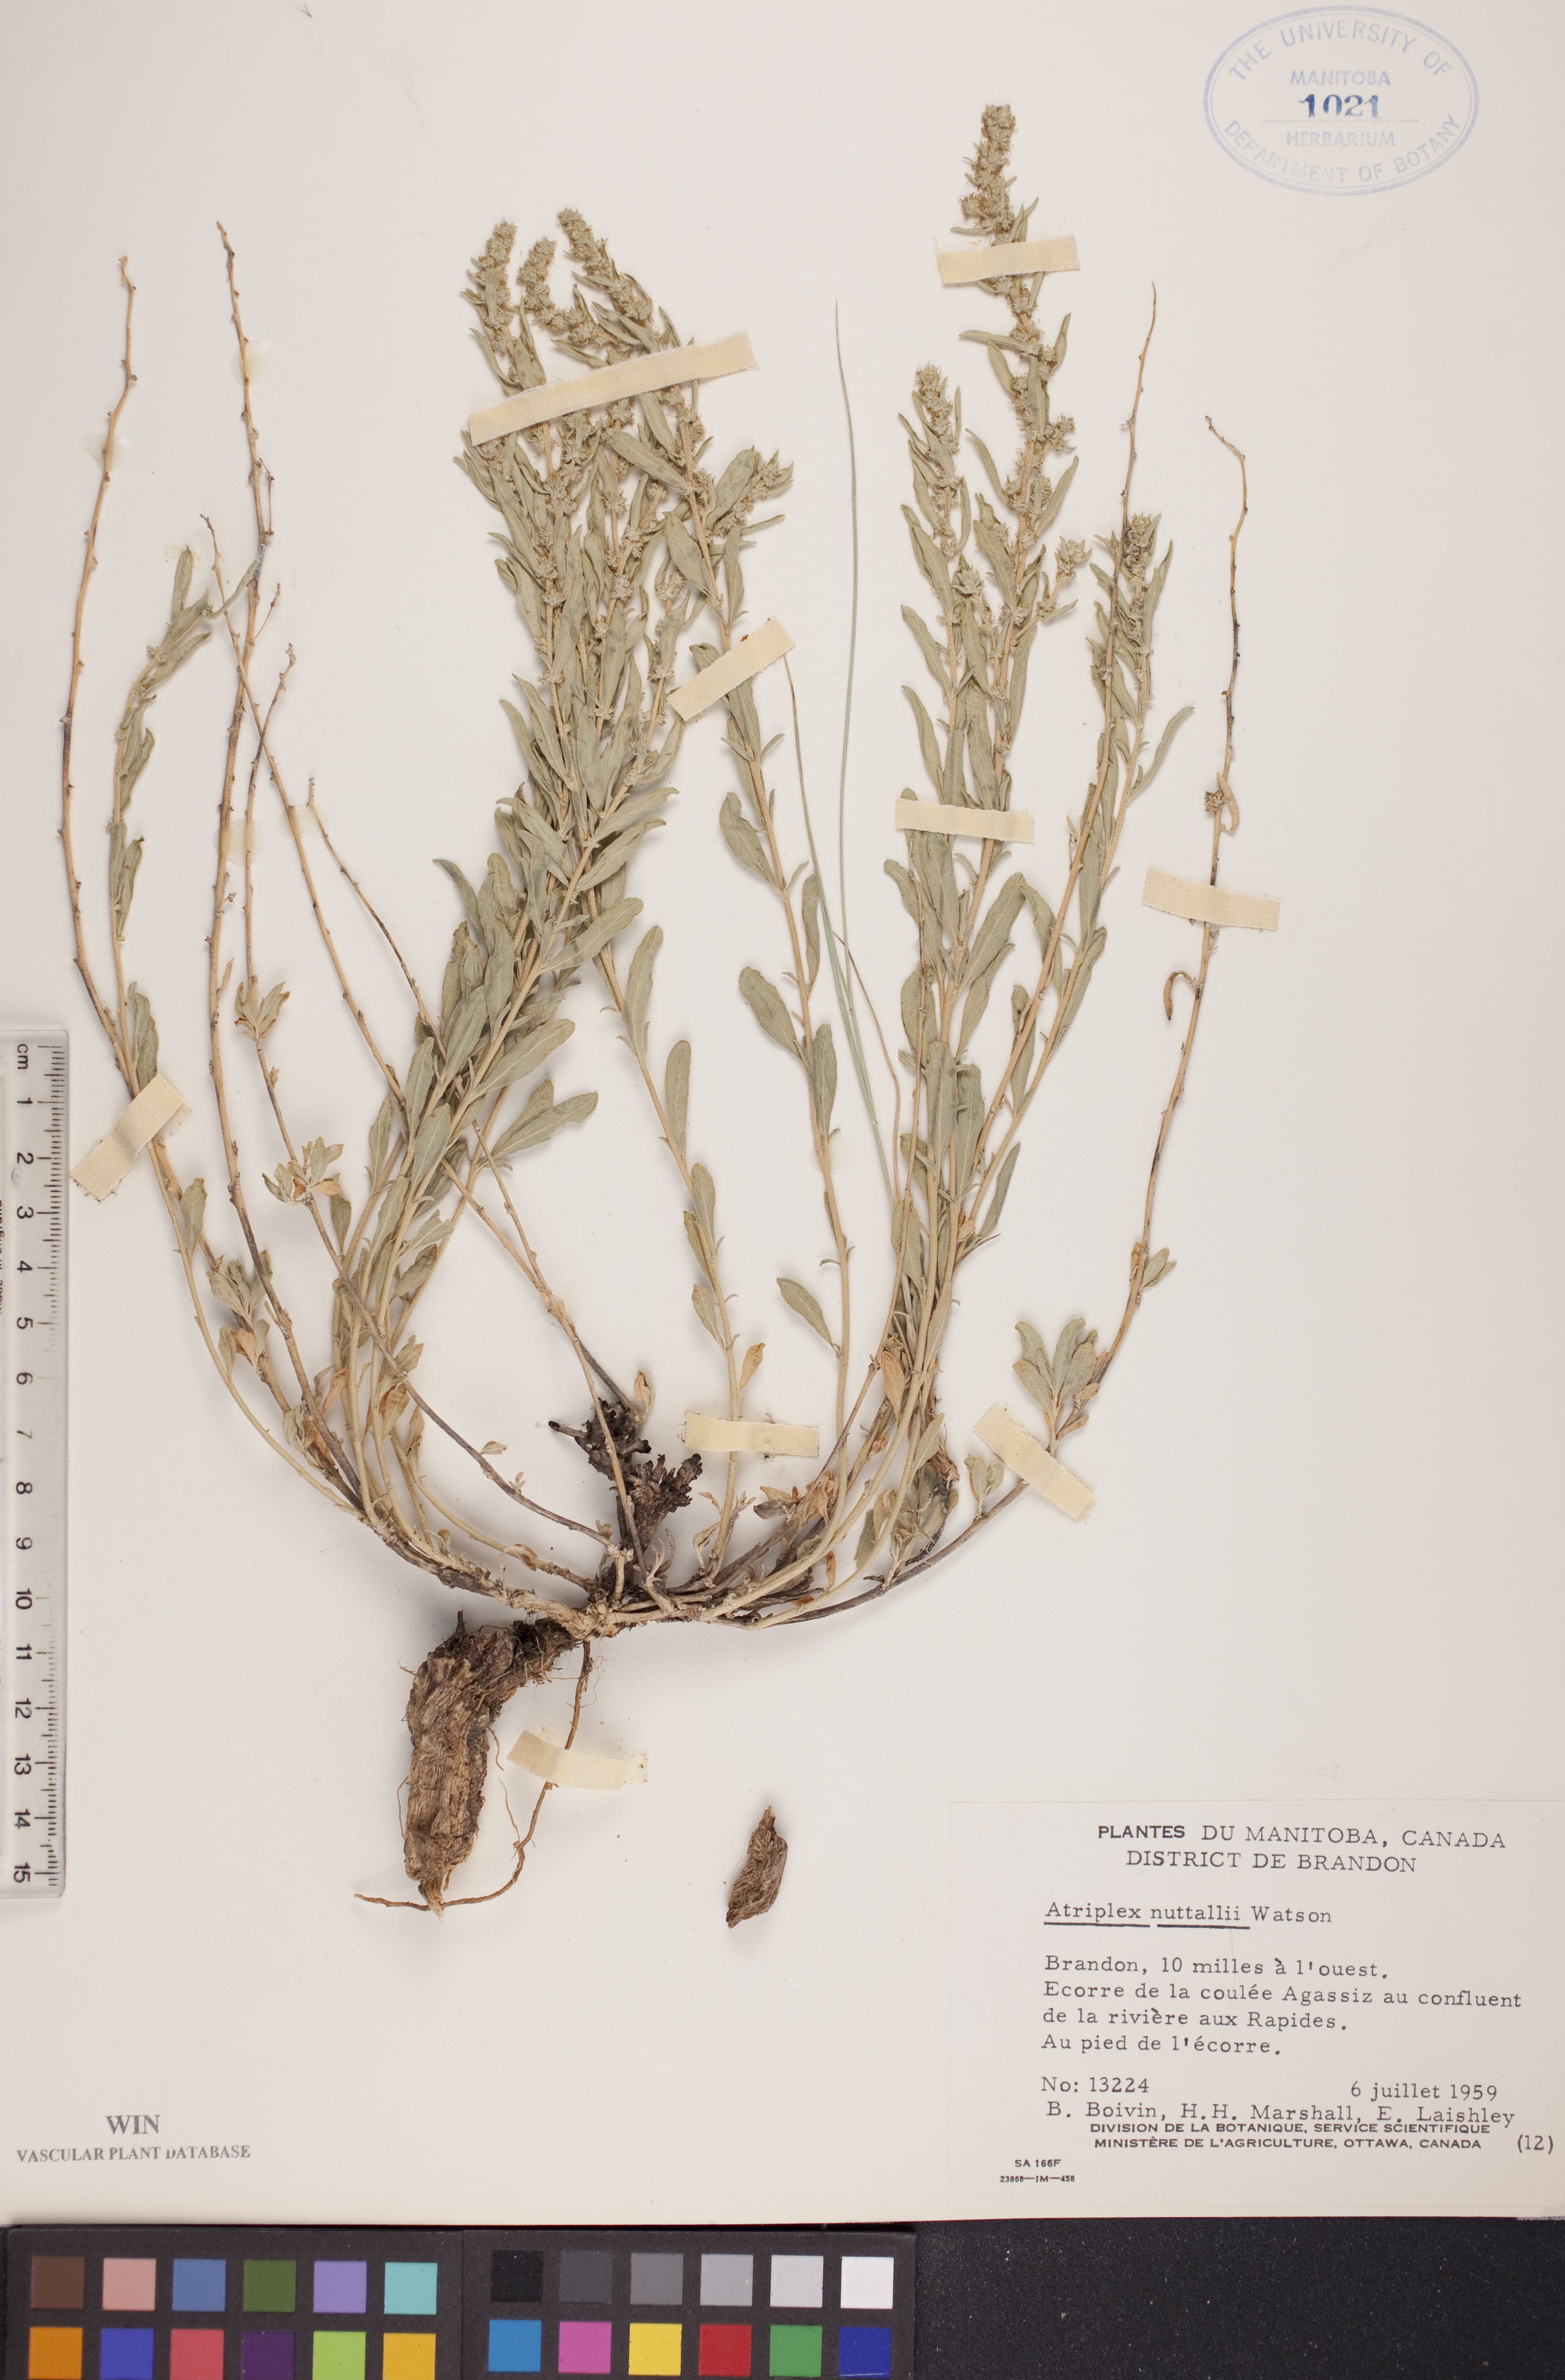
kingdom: Plantae
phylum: Tracheophyta
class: Magnoliopsida
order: Caryophyllales
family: Amaranthaceae
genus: Atriplex
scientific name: Atriplex canescens
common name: Four-wing saltbush
